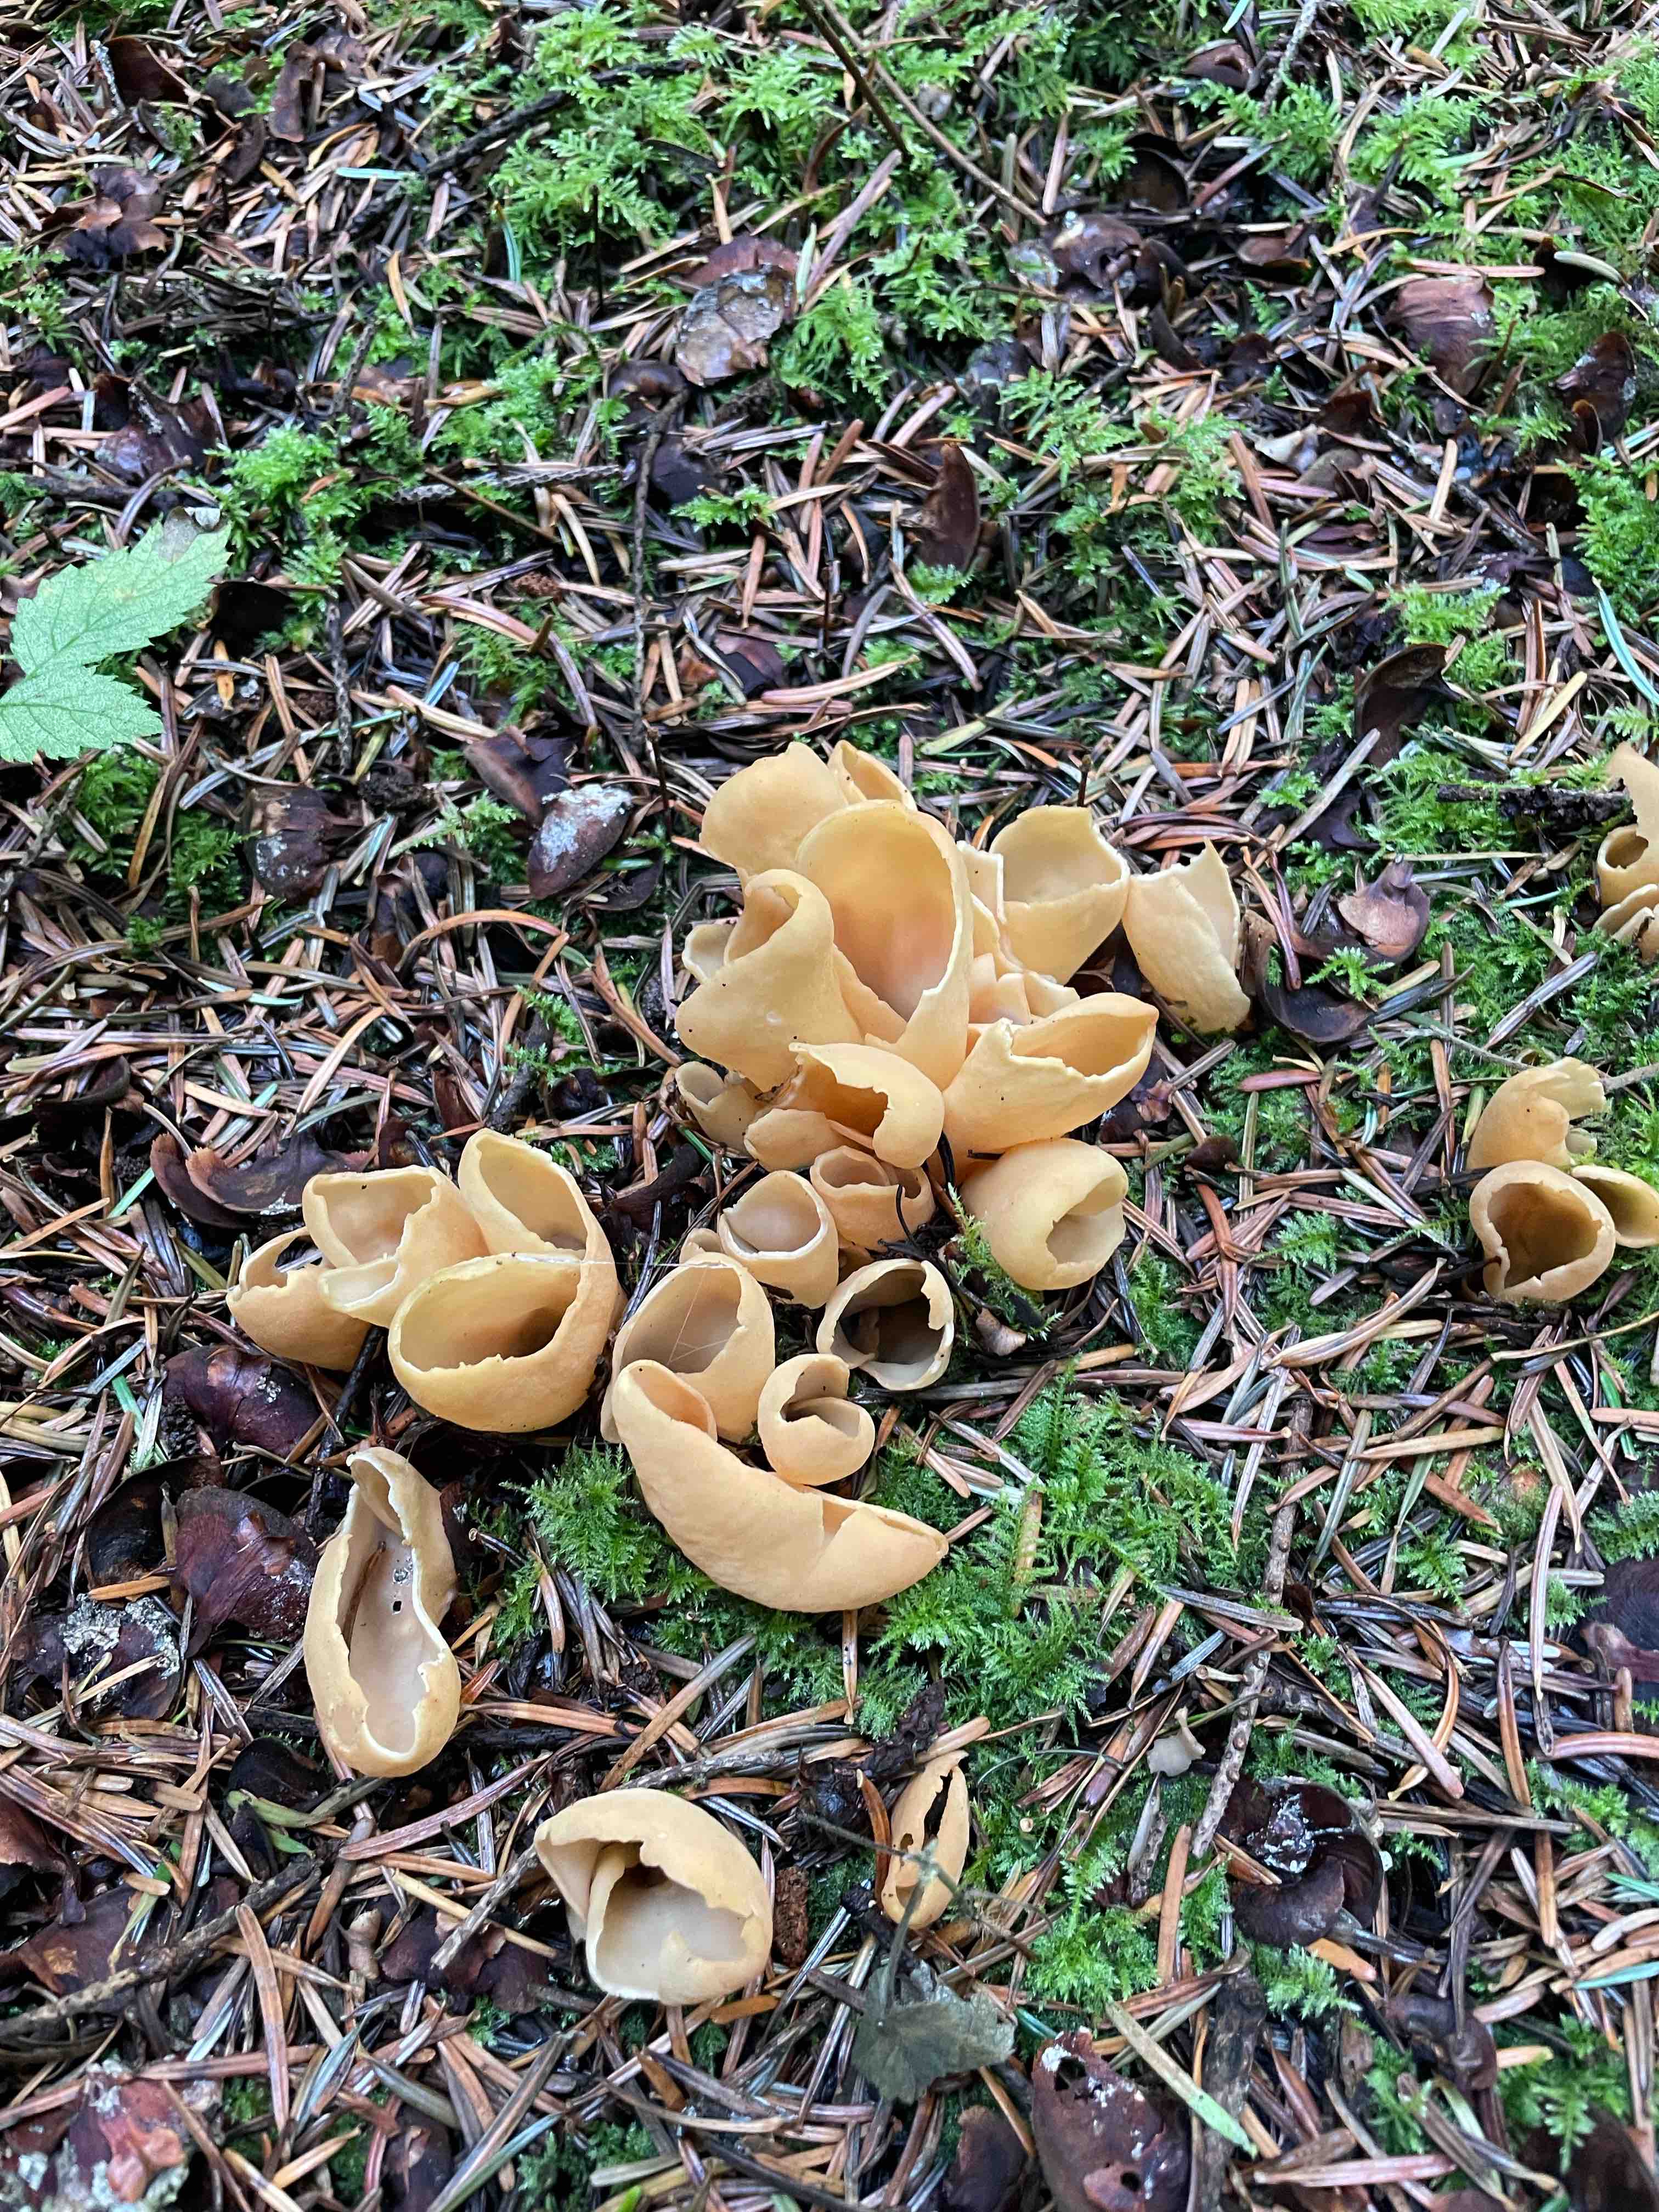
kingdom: Fungi
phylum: Ascomycota
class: Pezizomycetes
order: Pezizales
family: Otideaceae
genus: Otidea
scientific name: Otidea alutacea
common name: læder-ørebæger
